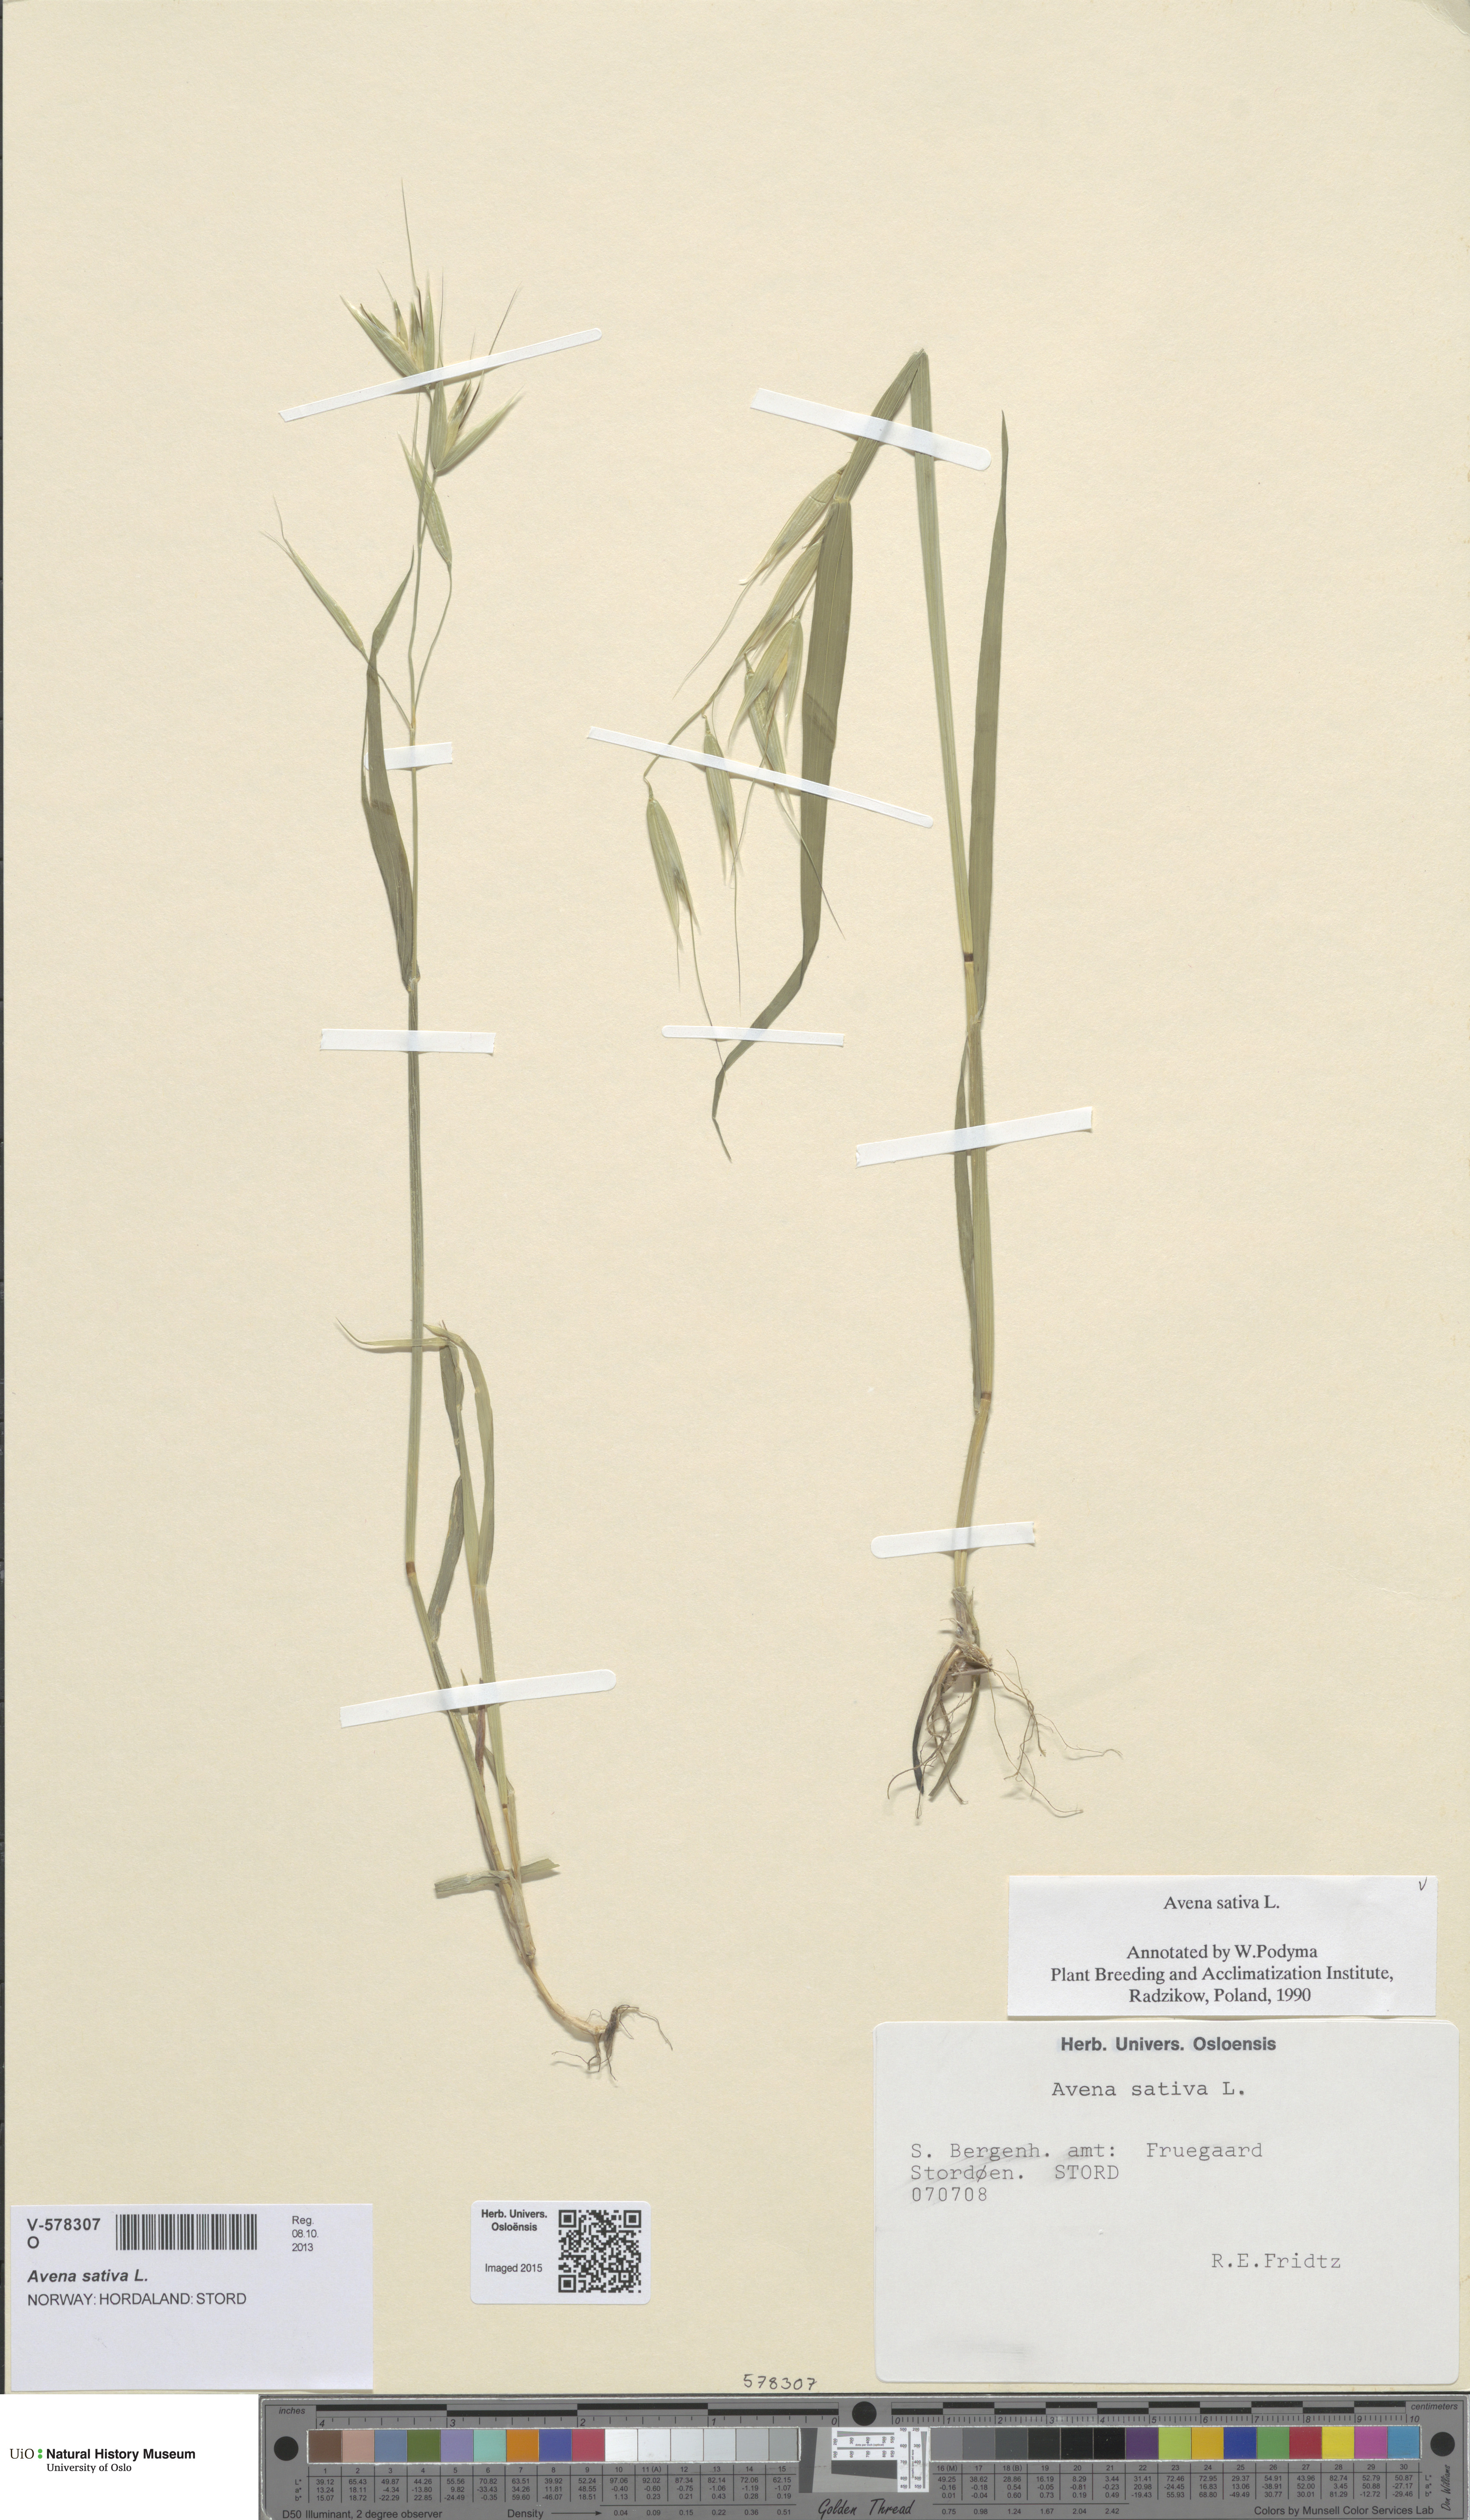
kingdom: Plantae
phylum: Tracheophyta
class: Liliopsida
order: Poales
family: Poaceae
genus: Avena
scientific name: Avena sativa
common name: Oat
